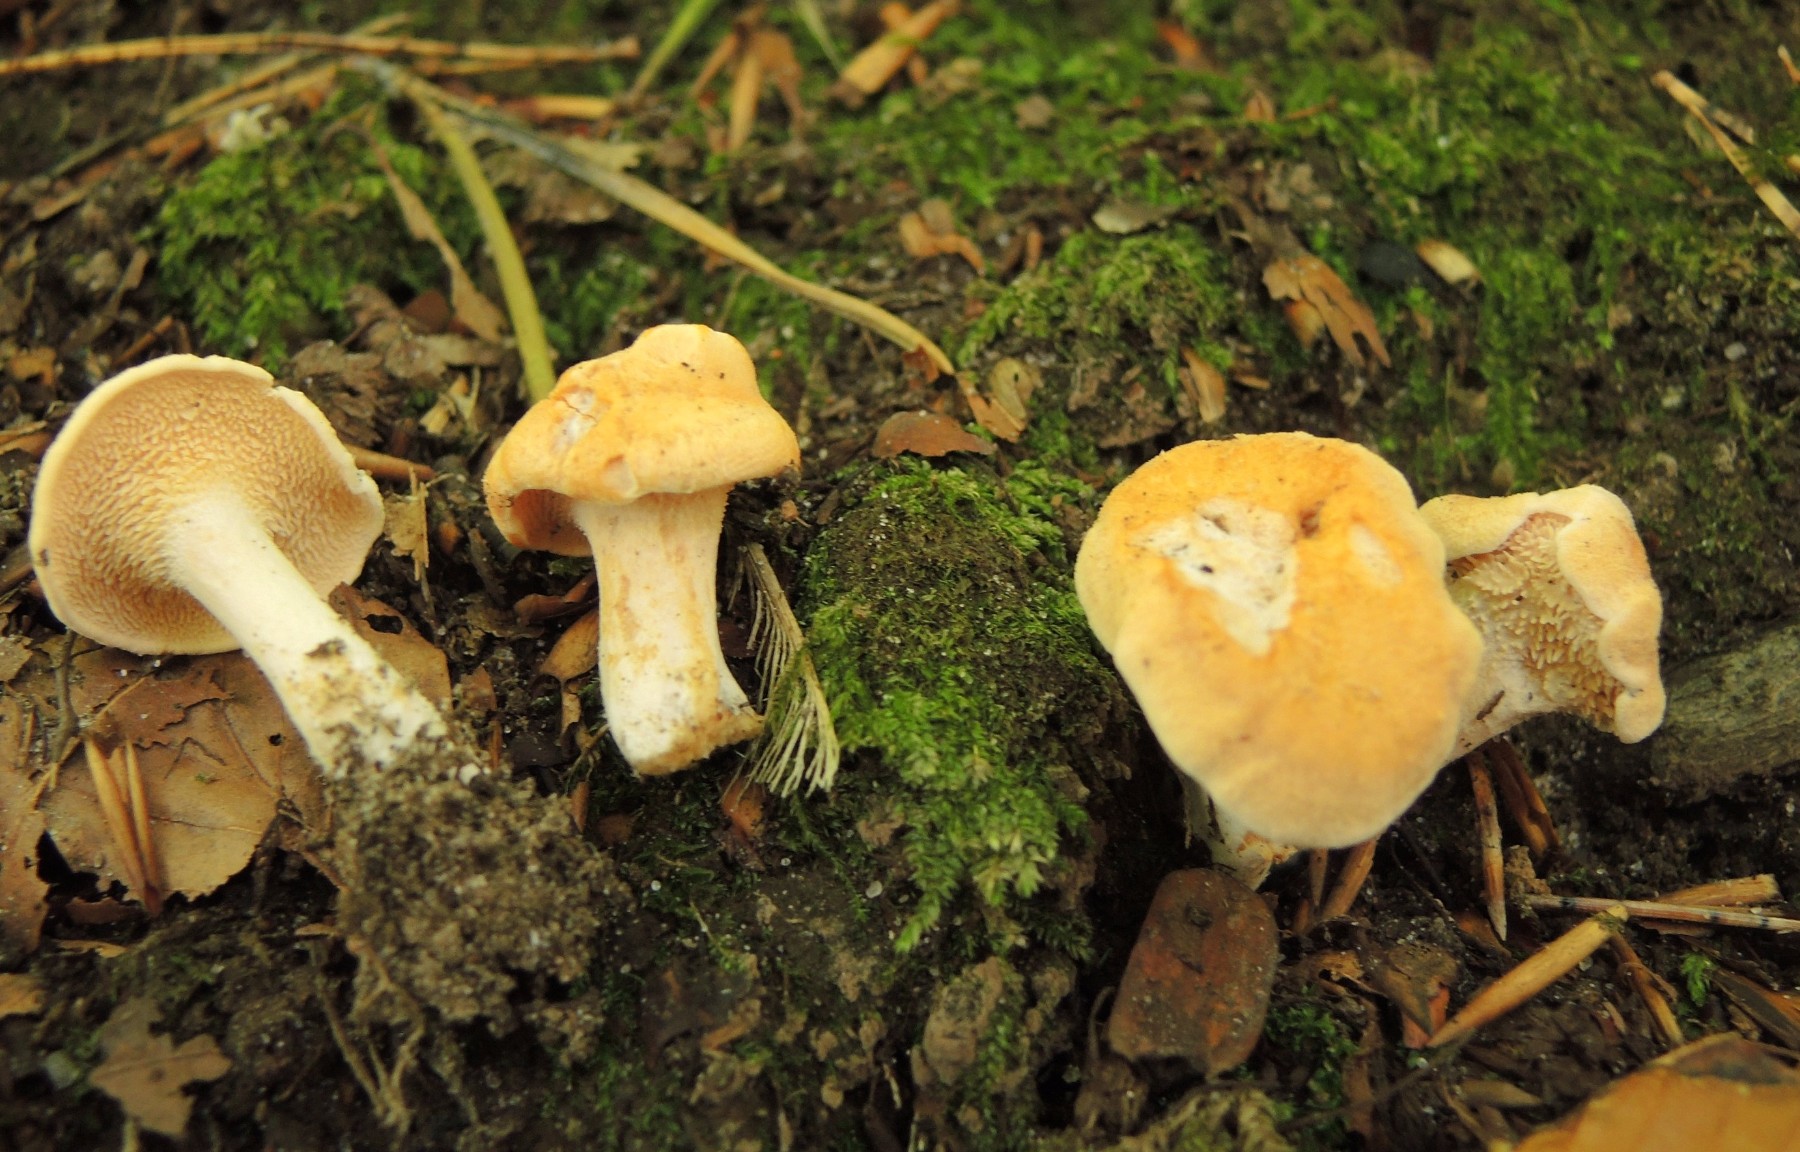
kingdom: Fungi
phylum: Basidiomycota
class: Agaricomycetes
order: Cantharellales
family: Hydnaceae
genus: Hydnum
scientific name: Hydnum ellipsosporum
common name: tandet pigsvamp
